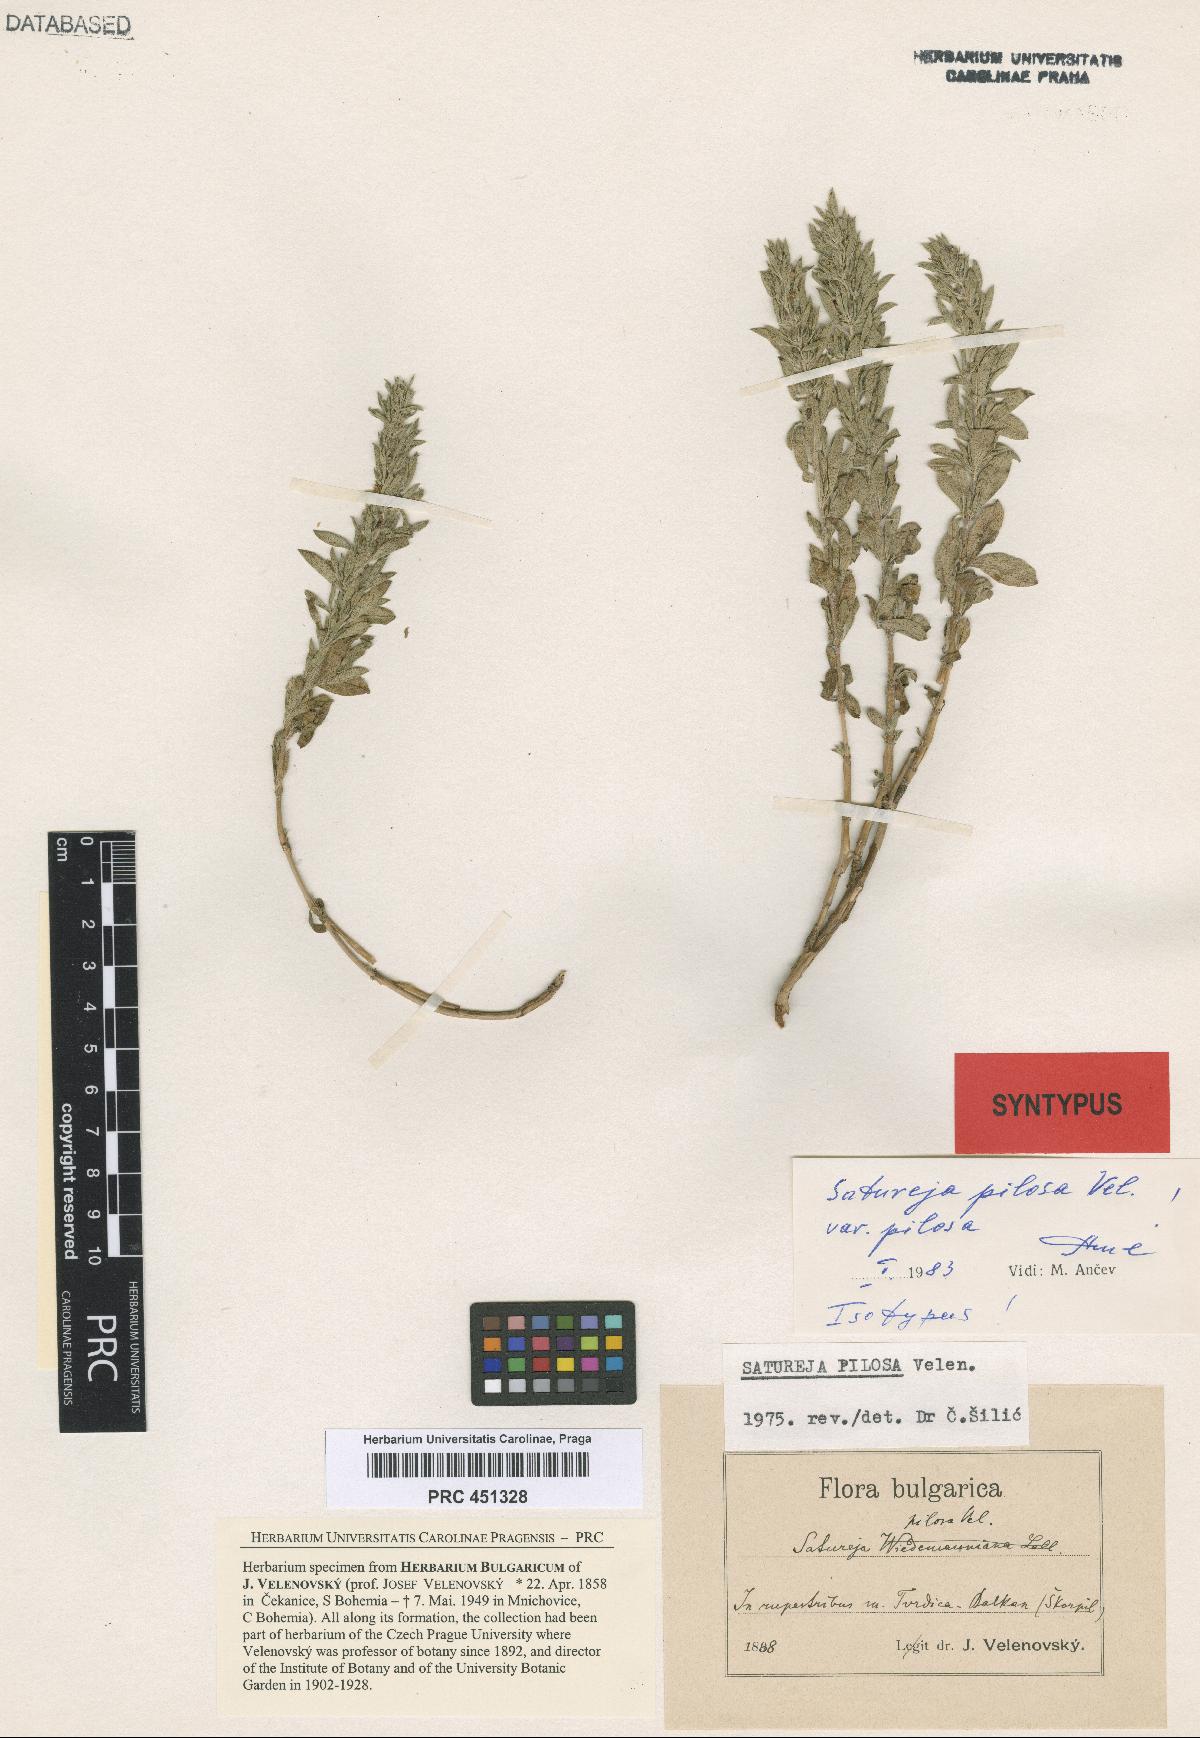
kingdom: Plantae
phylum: Tracheophyta
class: Magnoliopsida
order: Lamiales
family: Lamiaceae
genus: Satureja
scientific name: Satureja pilosa
